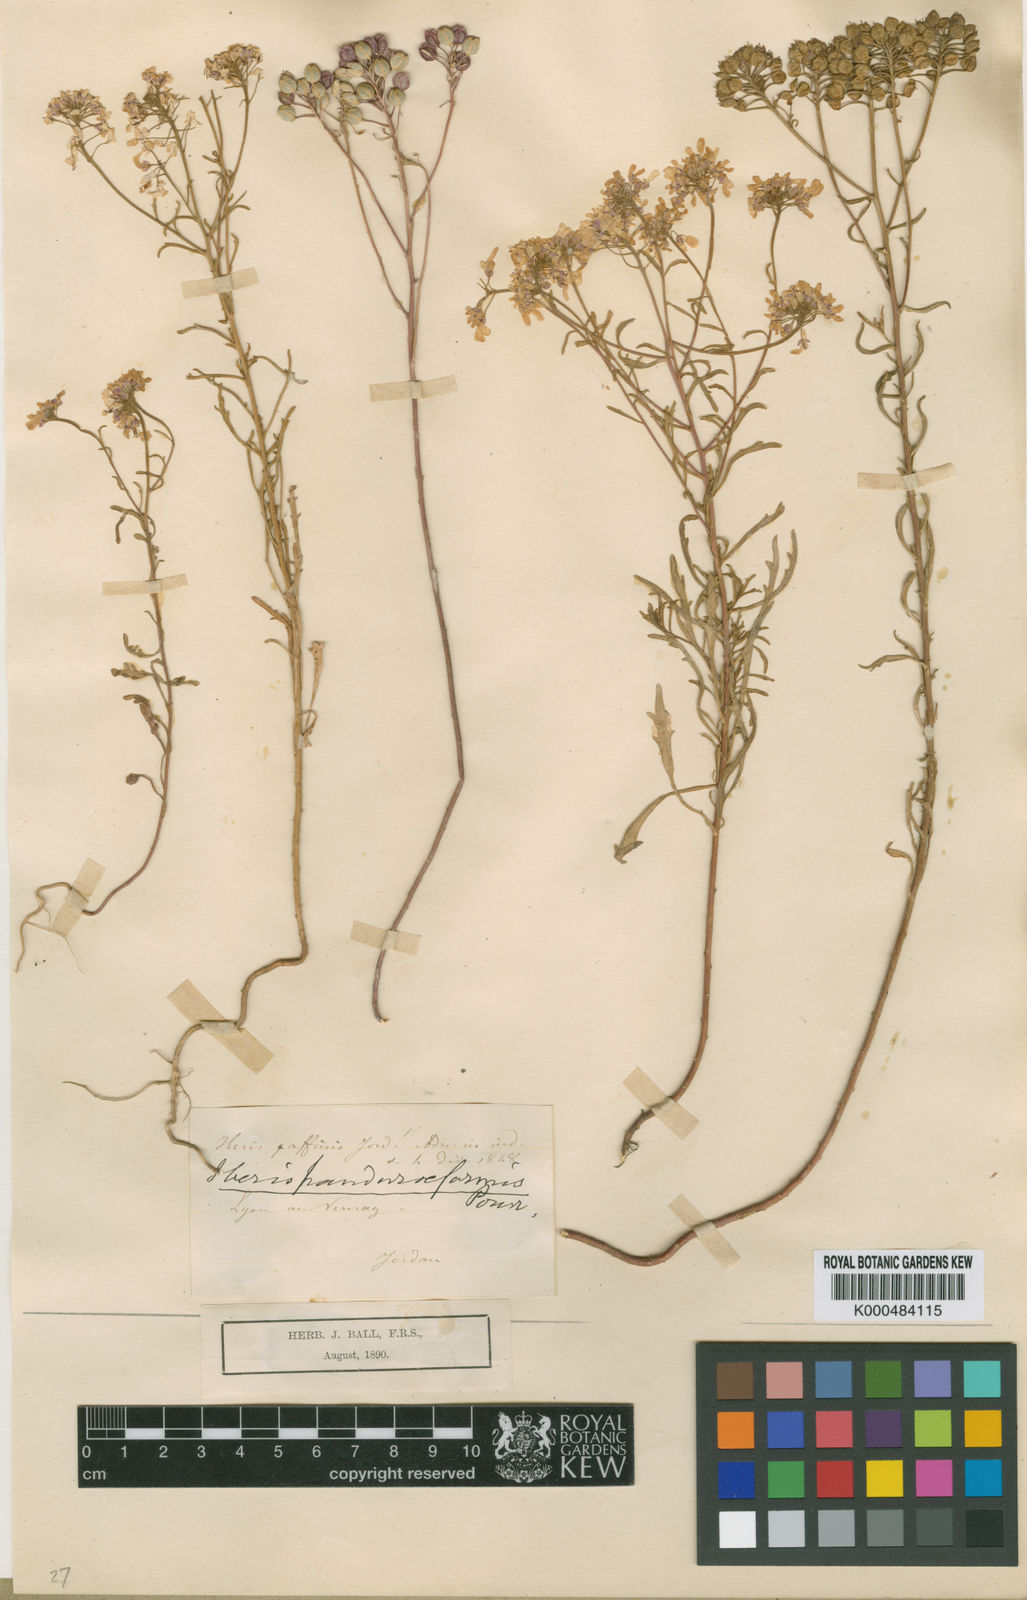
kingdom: Plantae
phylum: Tracheophyta
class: Magnoliopsida
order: Brassicales
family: Brassicaceae
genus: Iberis
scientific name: Iberis amara
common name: Annual candytuft
